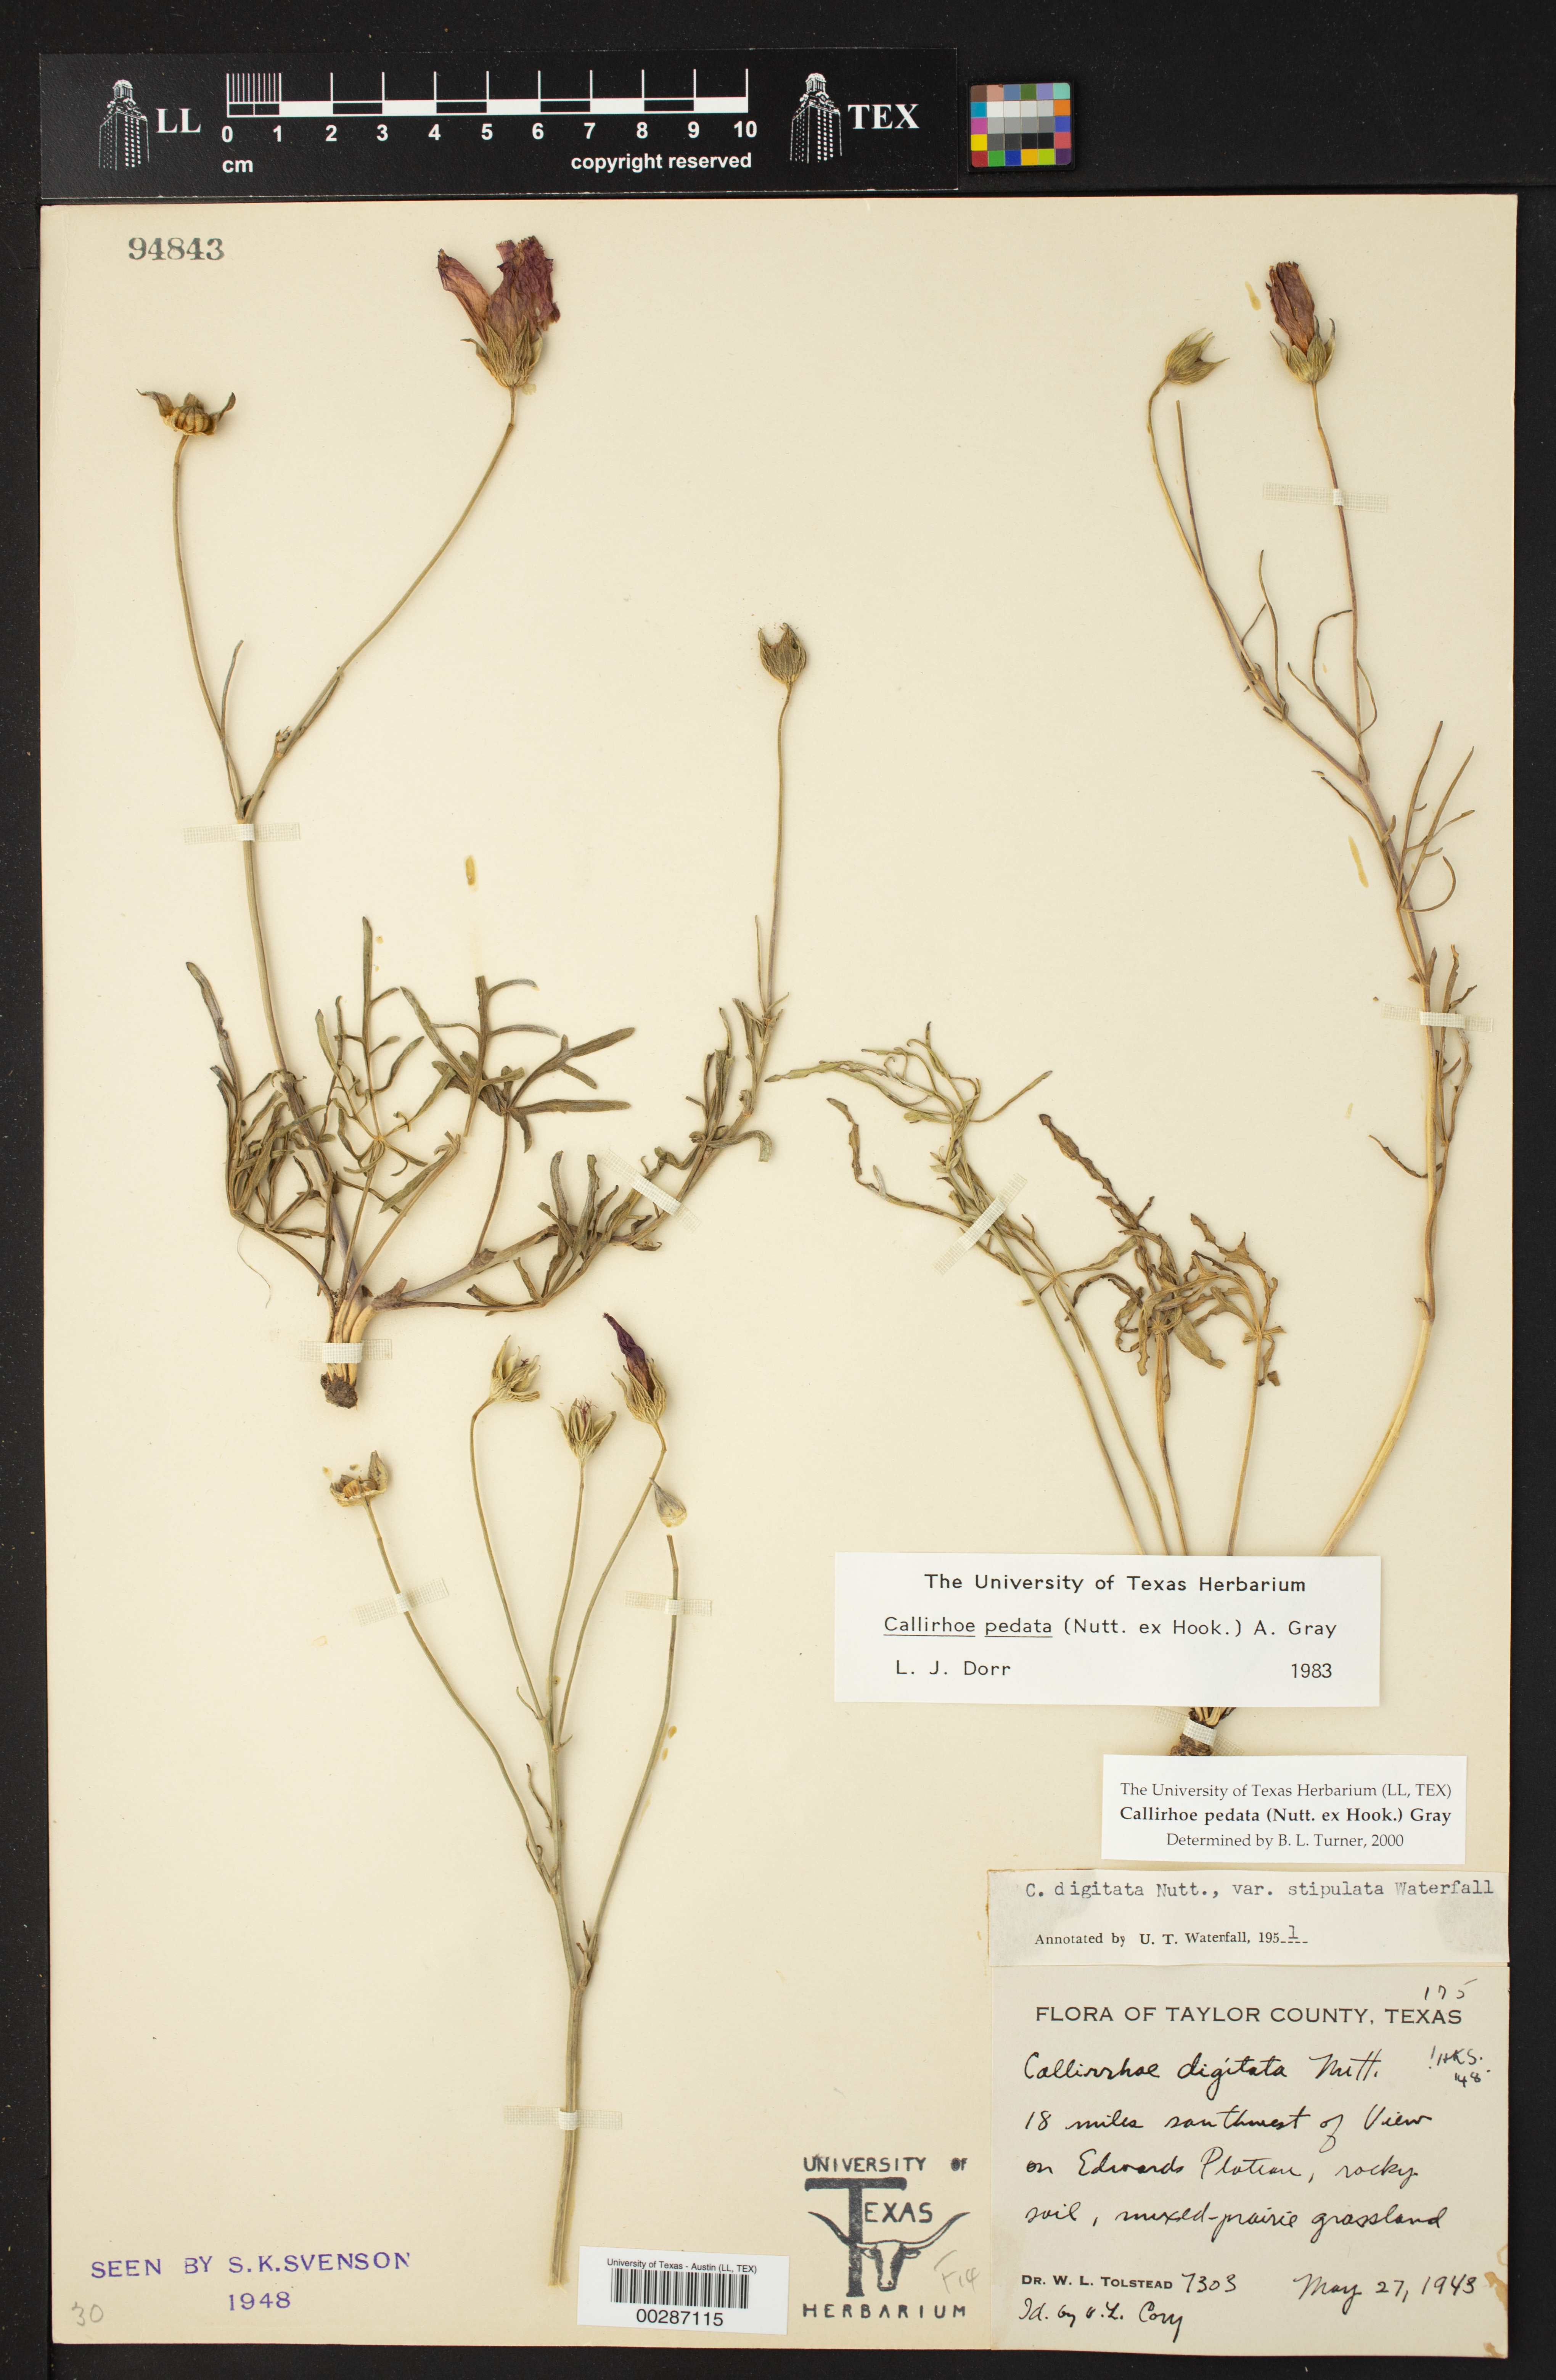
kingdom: Plantae
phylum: Tracheophyta
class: Magnoliopsida
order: Malvales
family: Malvaceae
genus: Callirhoe
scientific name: Callirhoe pedata
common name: Finger poppy-mallow
